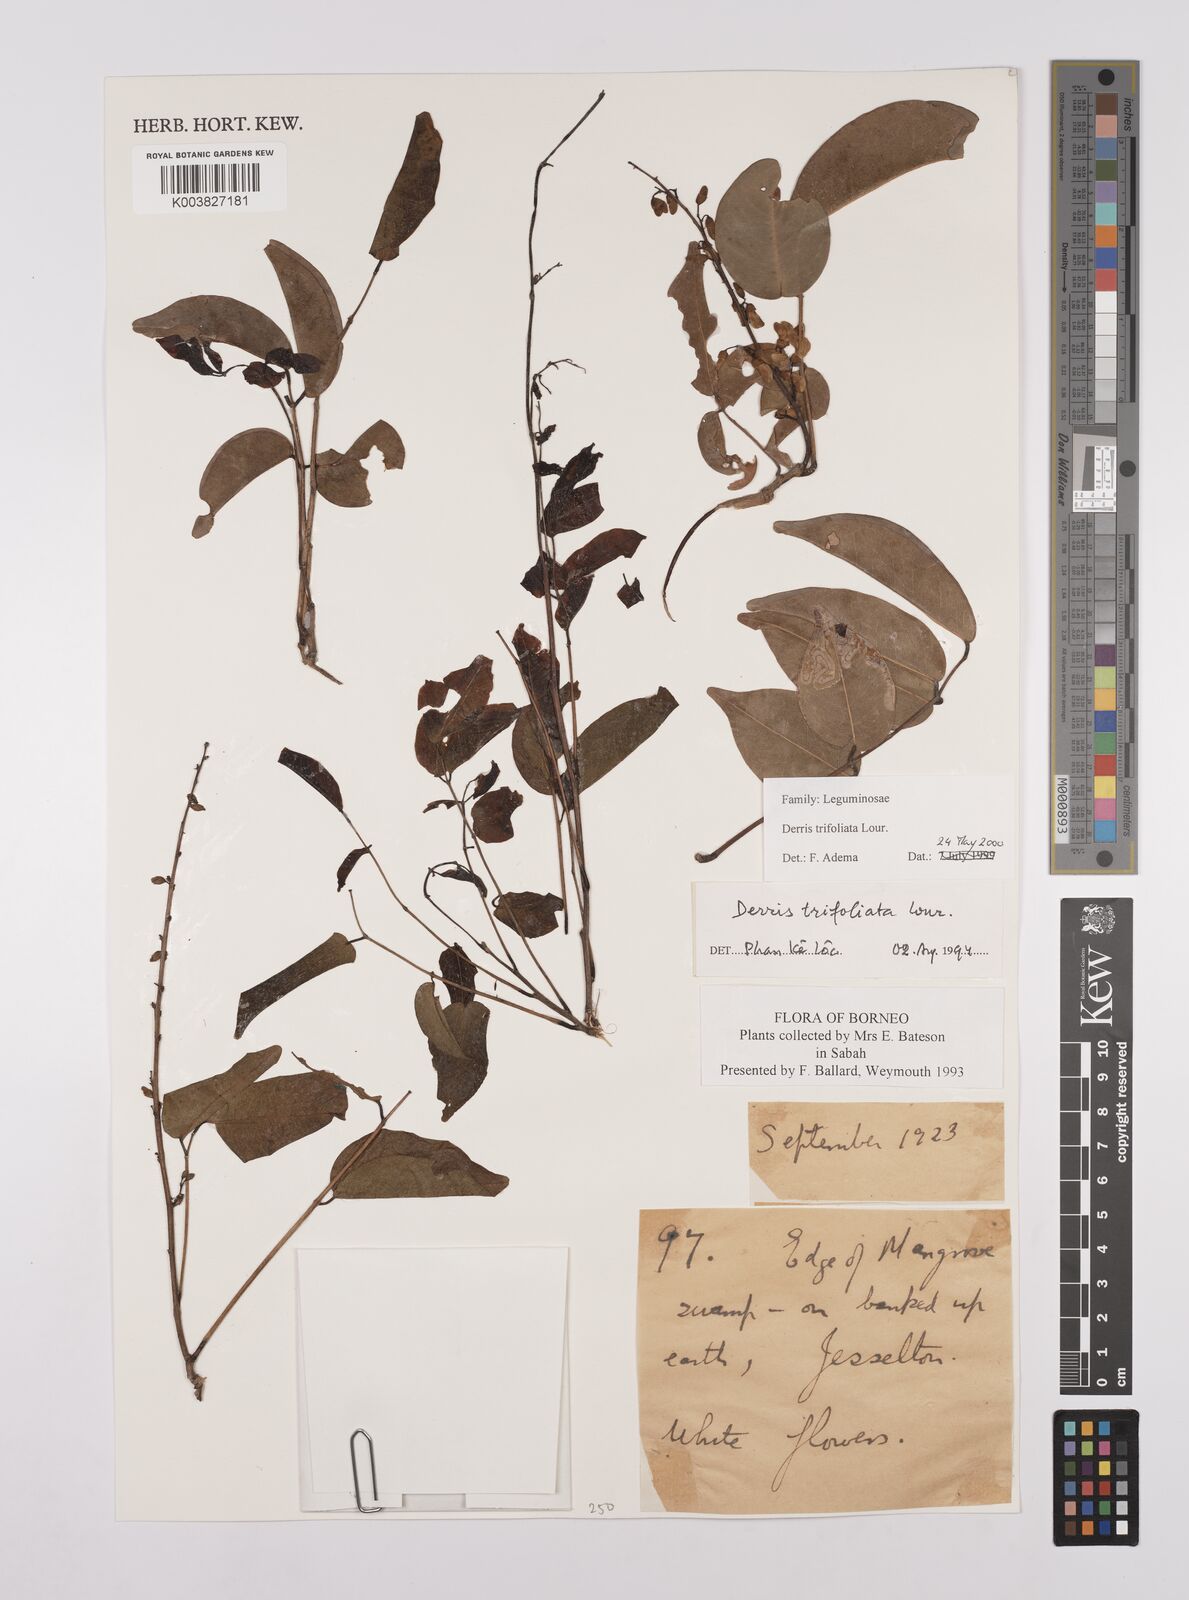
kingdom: Plantae
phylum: Tracheophyta
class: Magnoliopsida
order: Fabales
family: Fabaceae
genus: Derris
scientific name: Derris trifoliata
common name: Three-leaf derris
